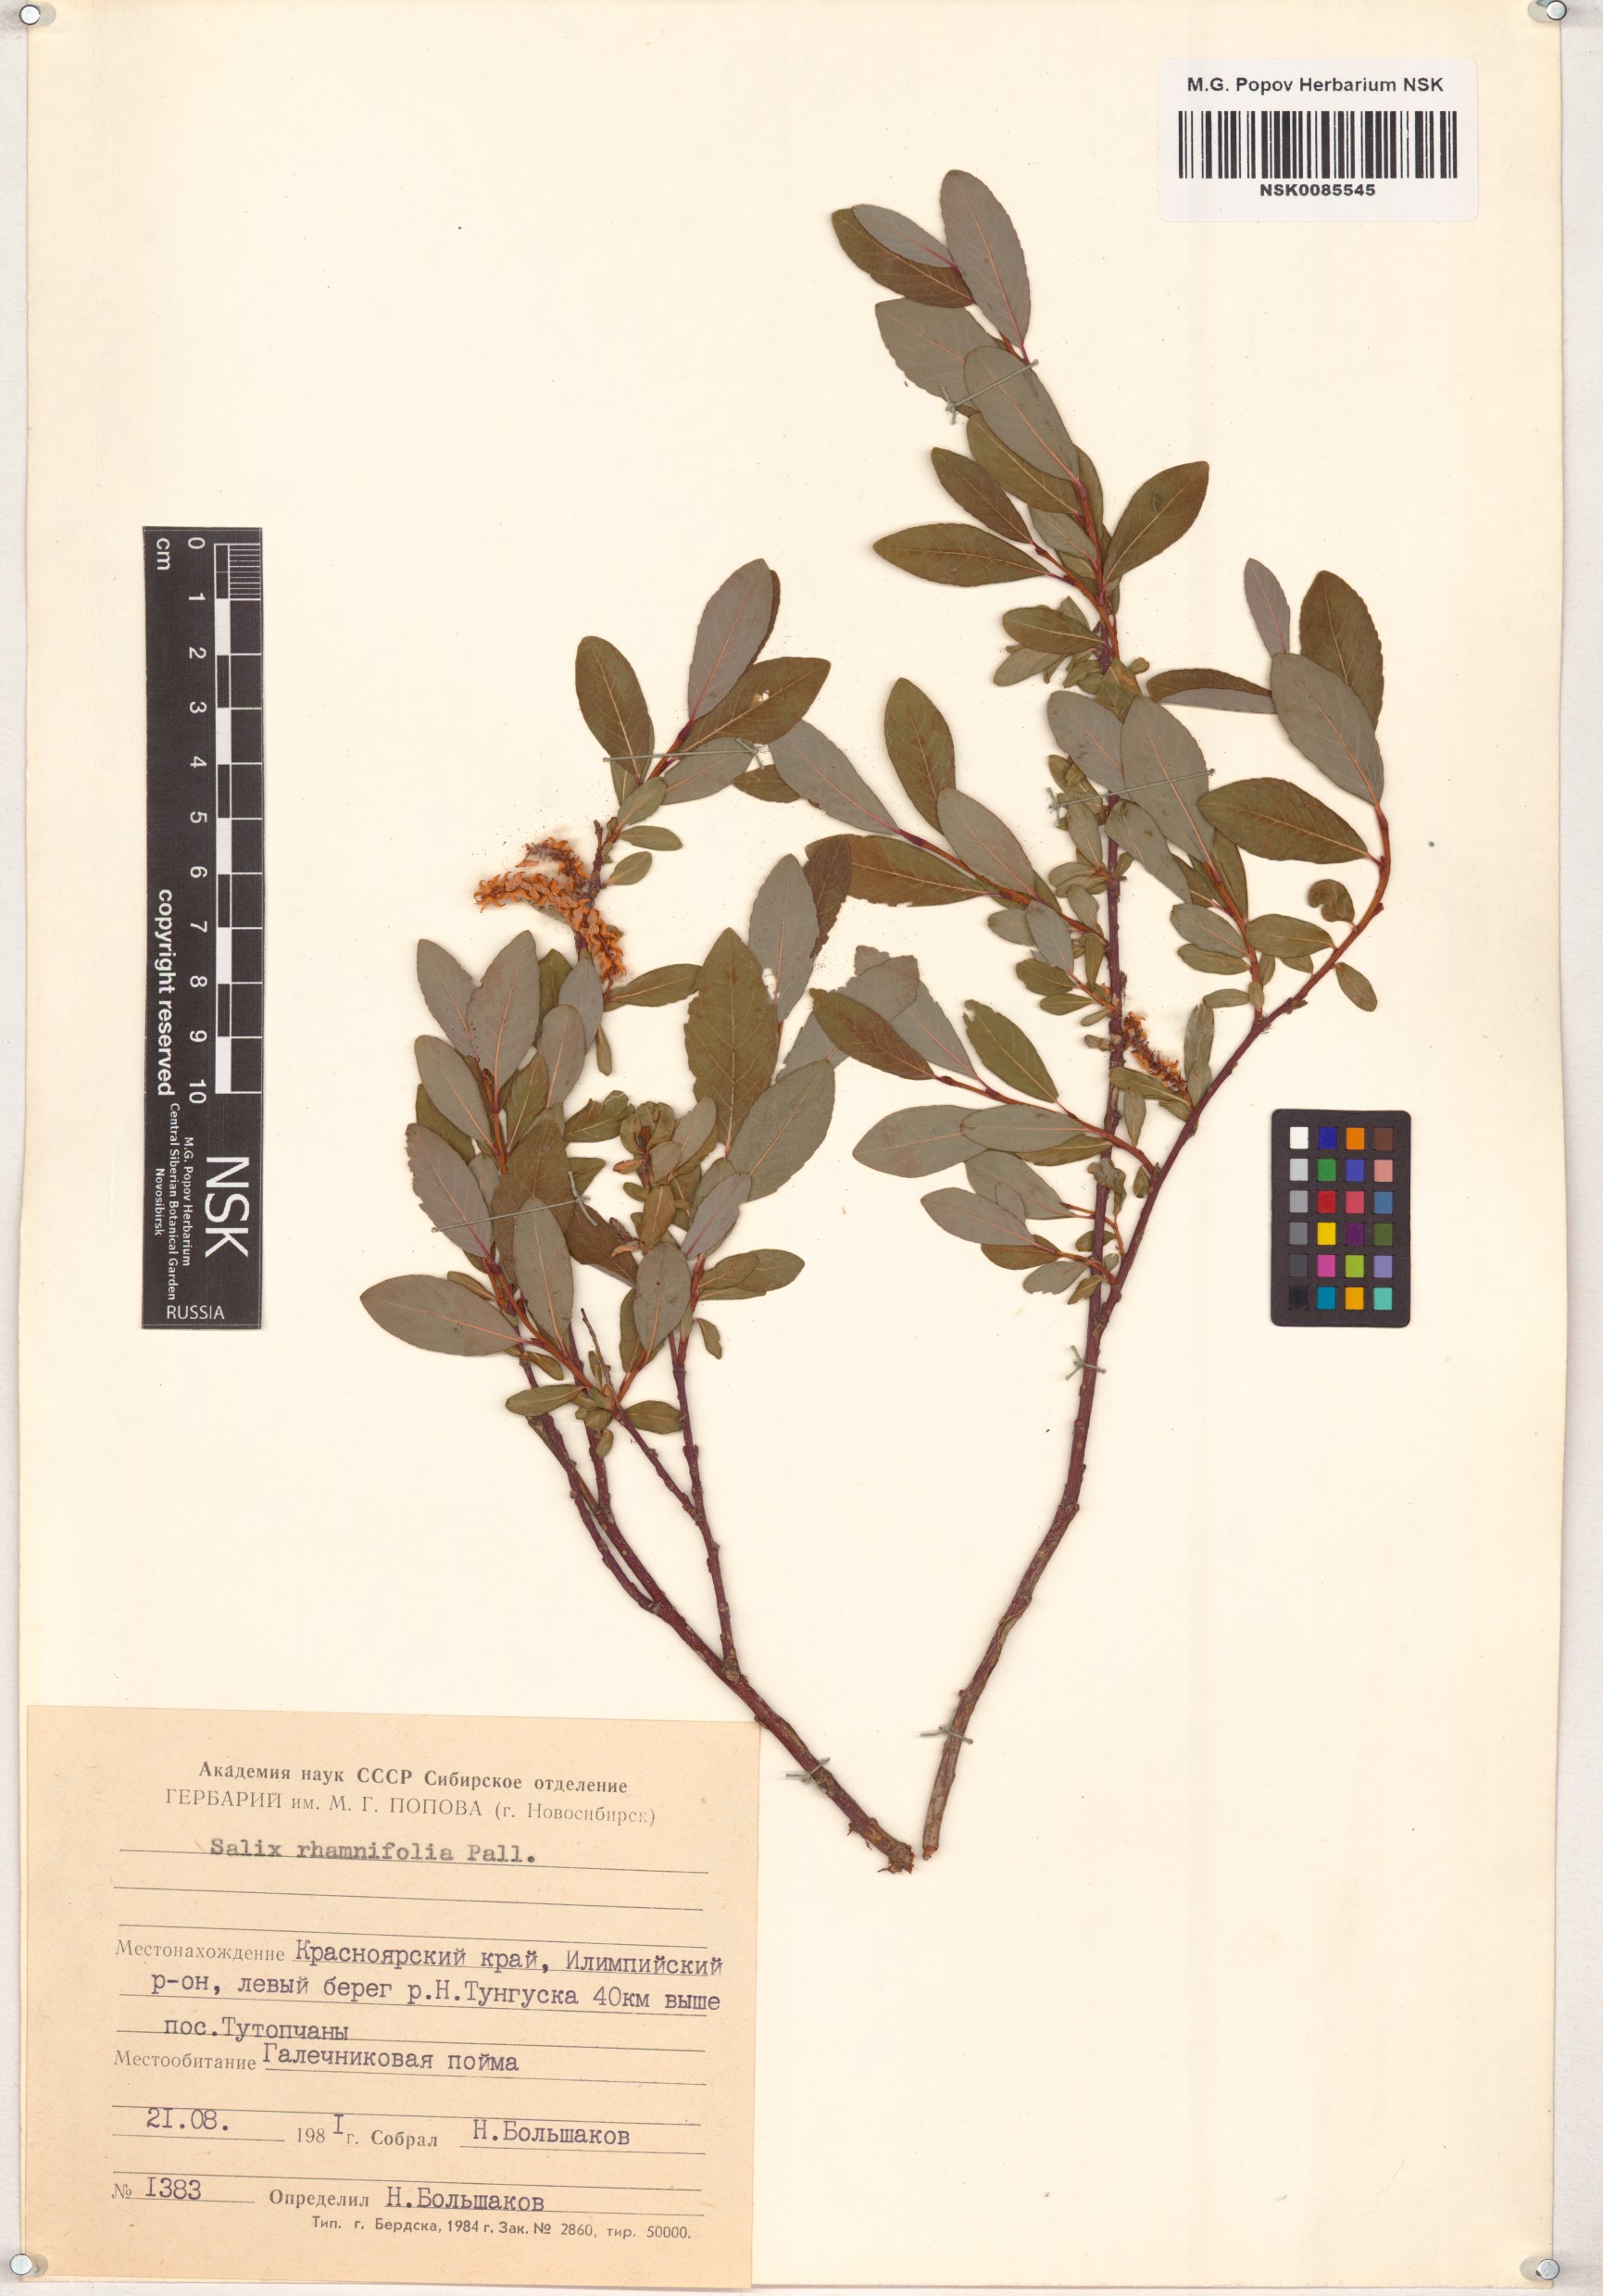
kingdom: Plantae
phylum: Tracheophyta
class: Magnoliopsida
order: Malpighiales
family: Salicaceae
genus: Salix
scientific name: Salix rhamnifolia
